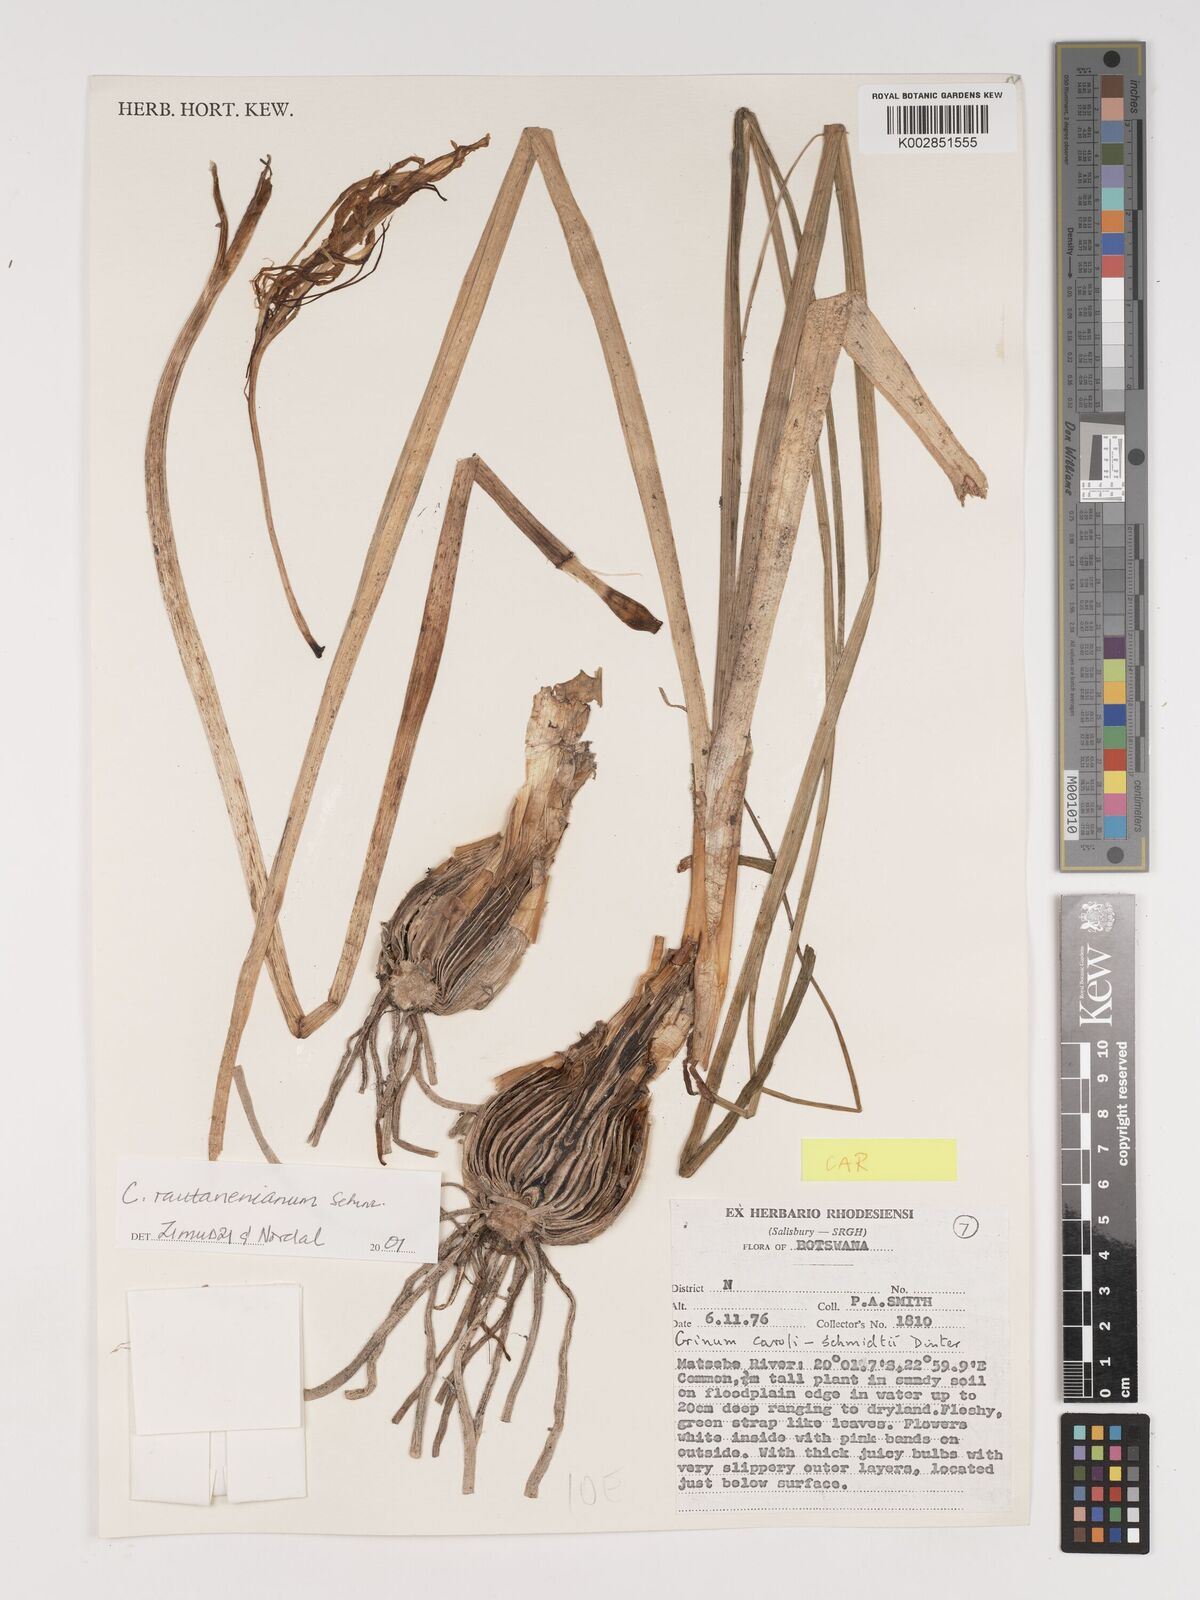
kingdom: Plantae
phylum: Tracheophyta
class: Liliopsida
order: Asparagales
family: Amaryllidaceae
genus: Crinum
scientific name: Crinum rautanenianum
